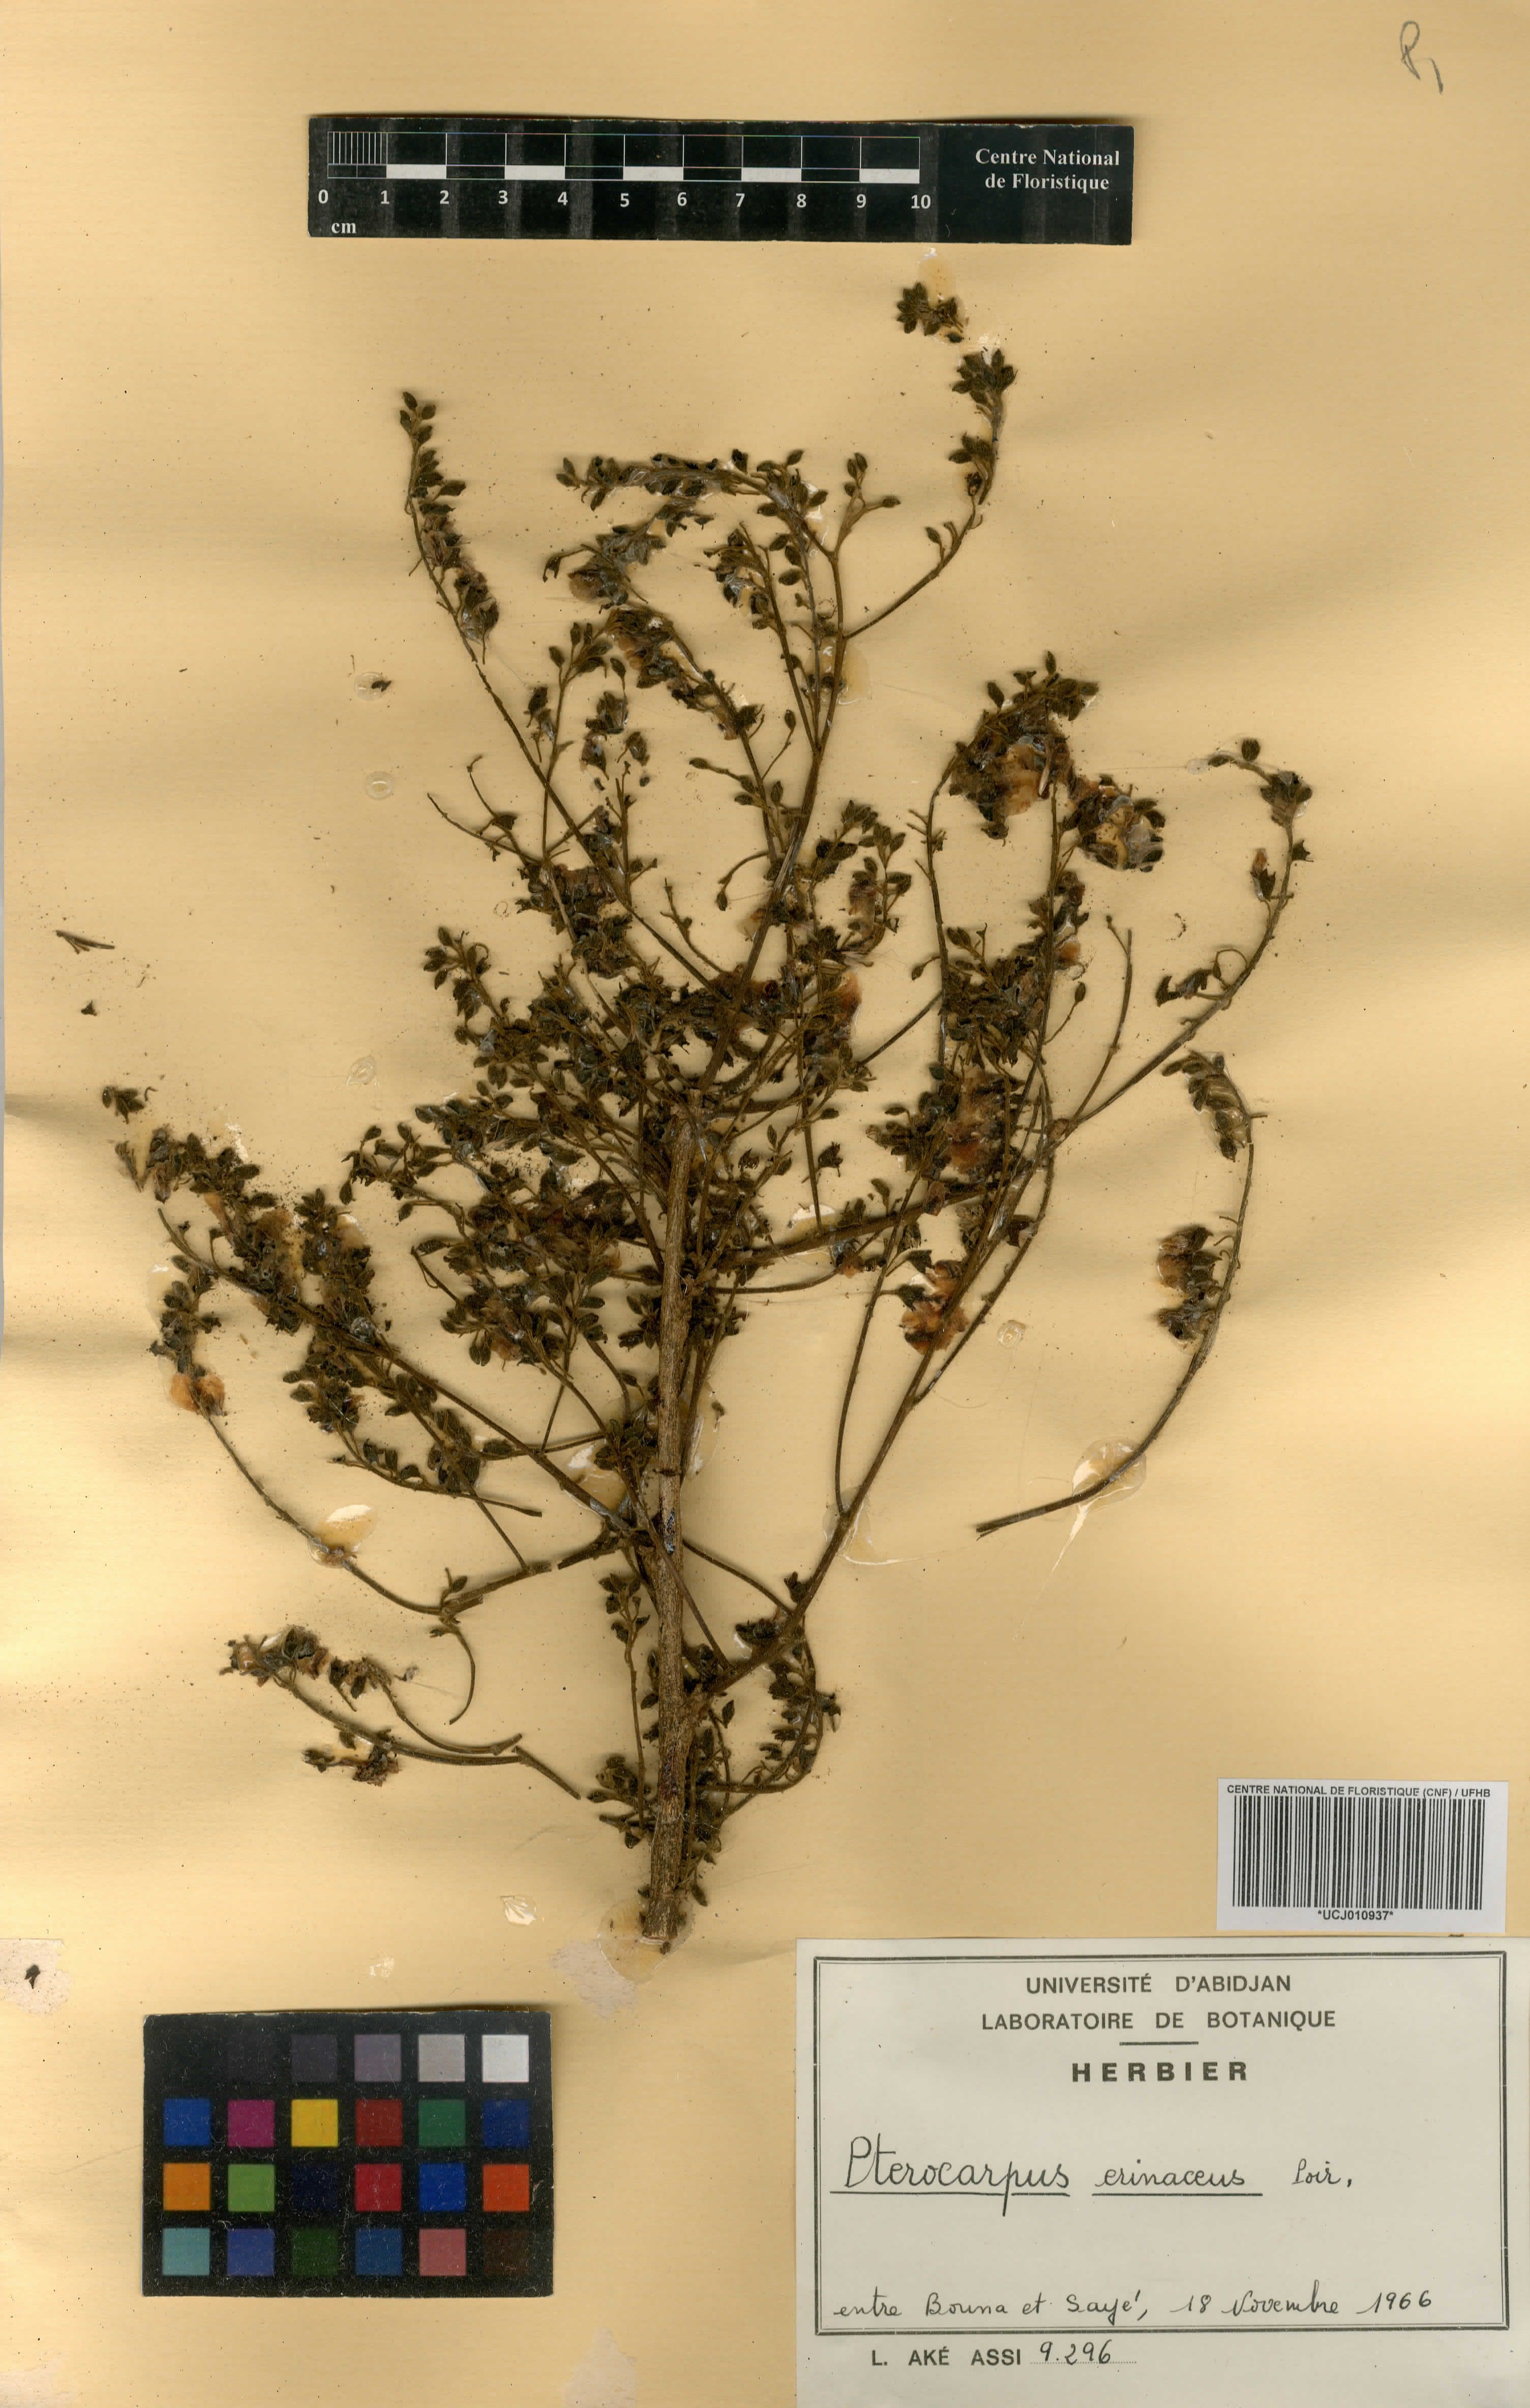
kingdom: Plantae
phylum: Tracheophyta
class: Magnoliopsida
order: Fabales
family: Fabaceae
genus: Pterocarpus
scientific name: Pterocarpus erinaceus
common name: African rosewood
